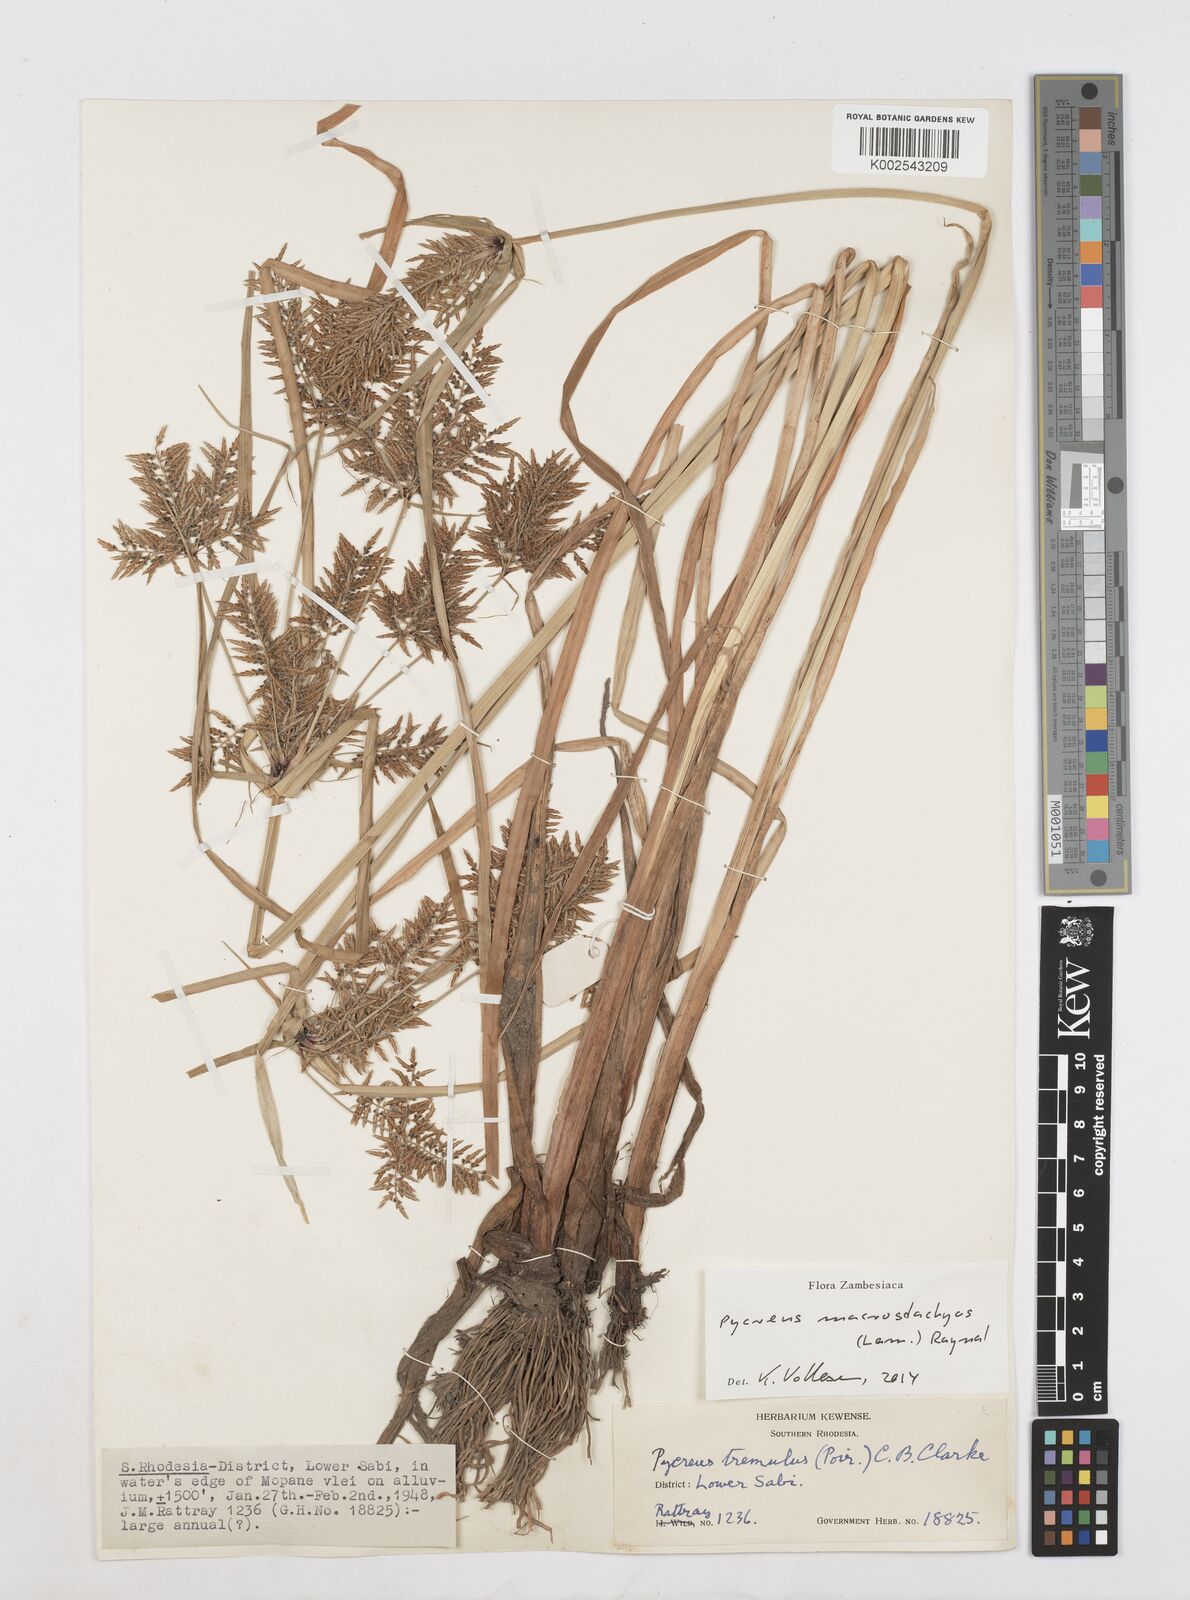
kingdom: Plantae
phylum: Tracheophyta
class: Liliopsida
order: Poales
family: Cyperaceae
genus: Cyperus
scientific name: Cyperus macrostachyos
